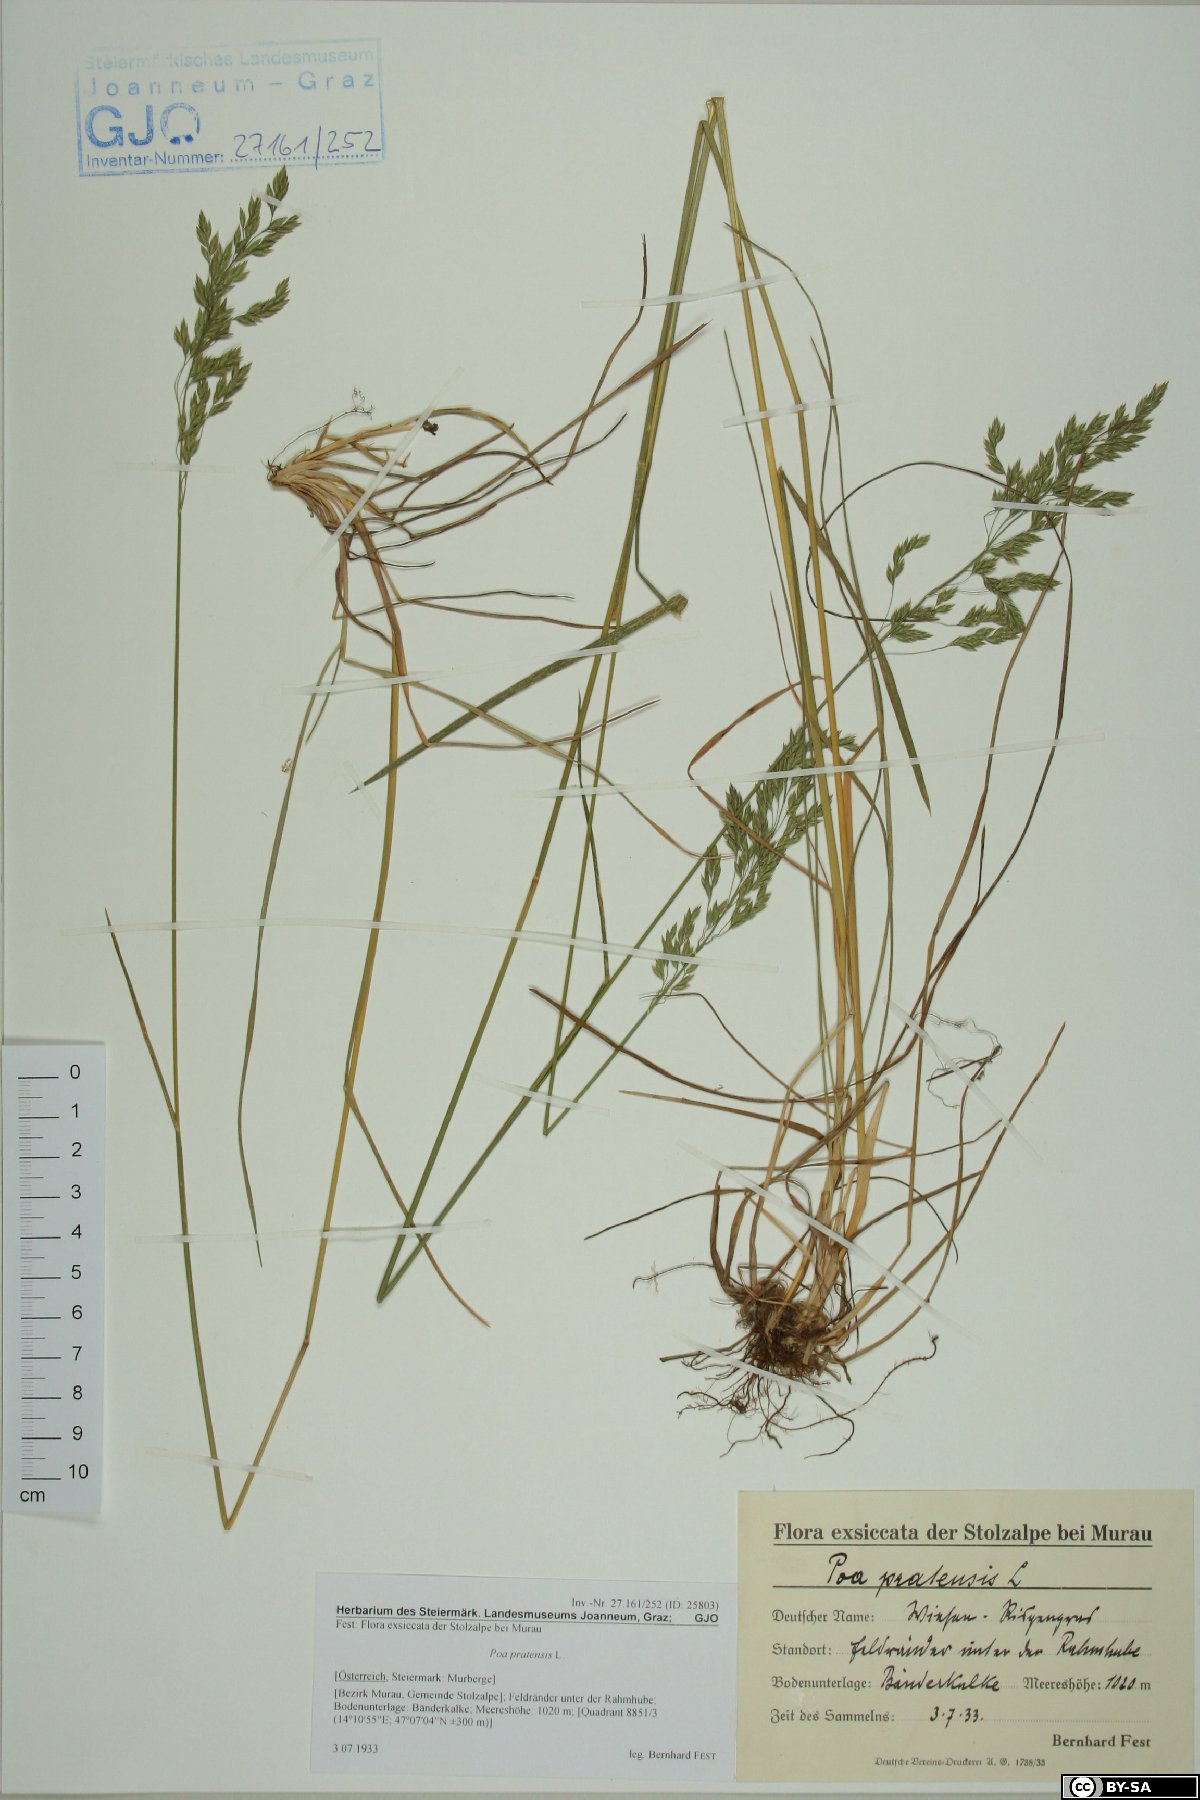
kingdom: Plantae
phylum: Tracheophyta
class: Liliopsida
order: Poales
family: Poaceae
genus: Poa
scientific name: Poa pratensis
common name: Kentucky bluegrass
